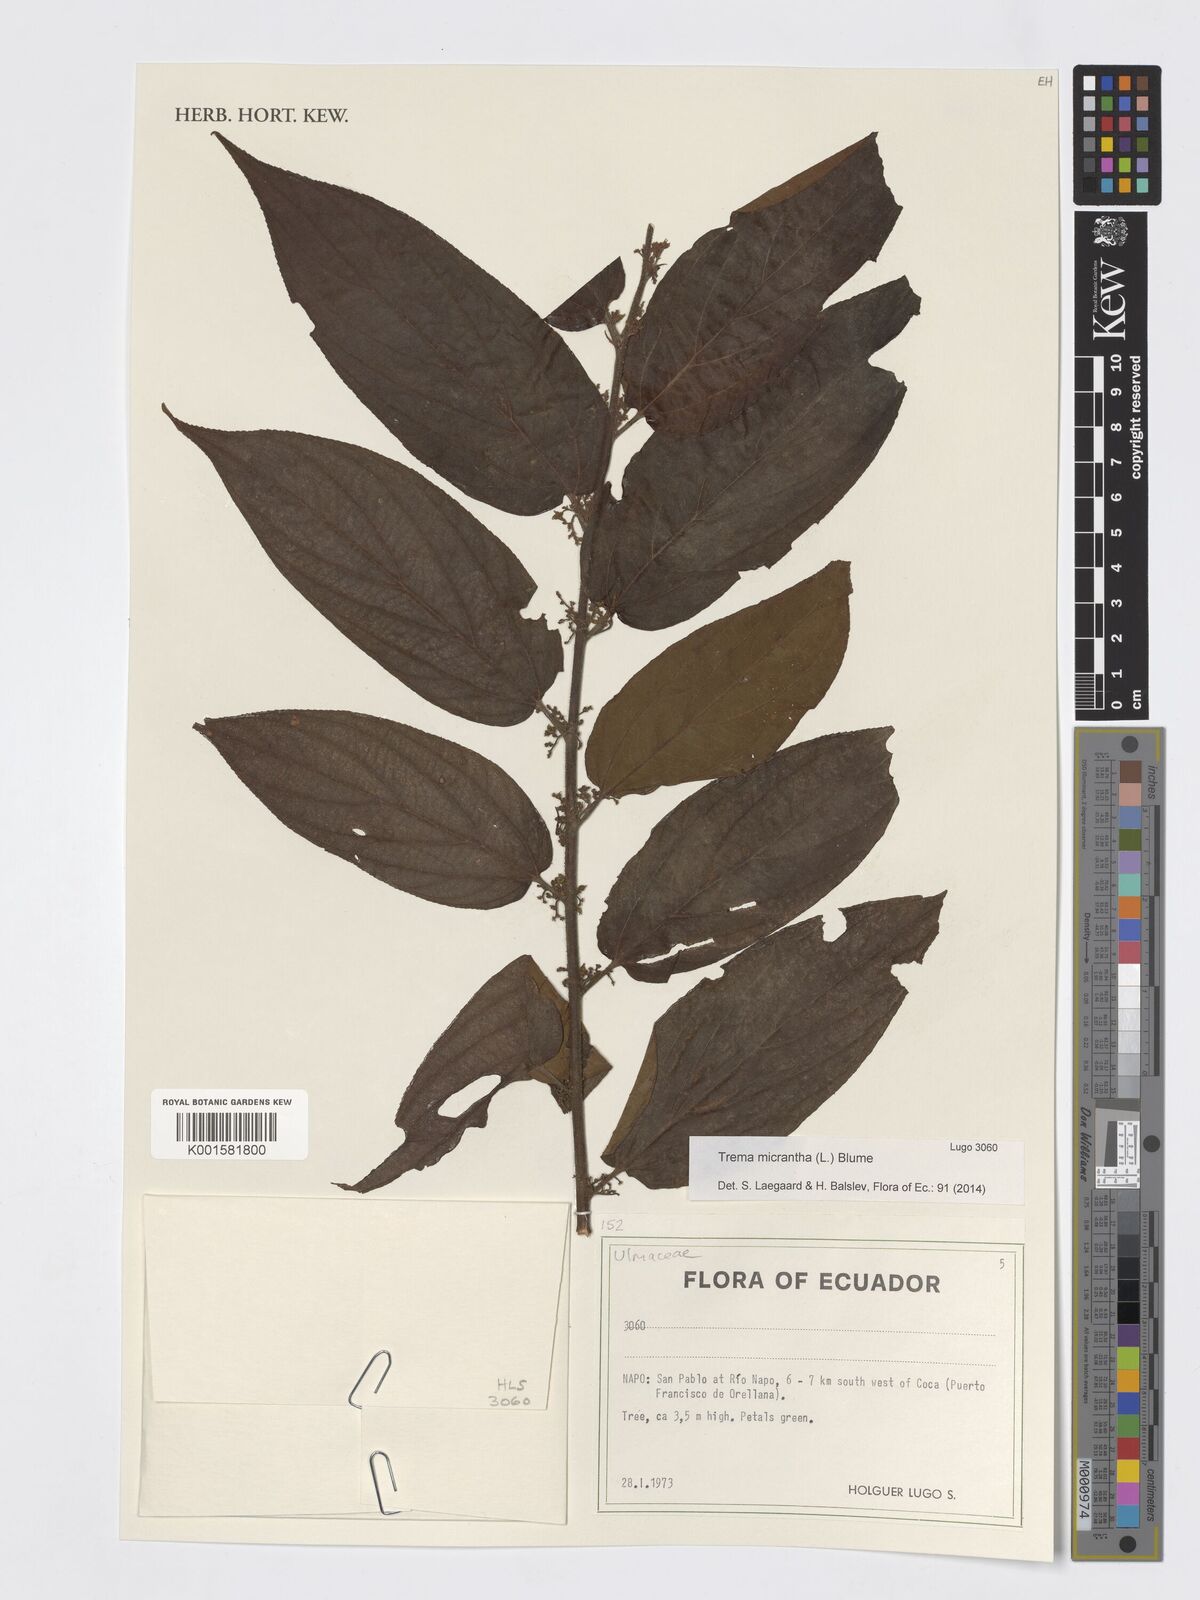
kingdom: Plantae
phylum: Tracheophyta
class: Magnoliopsida
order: Rosales
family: Cannabaceae
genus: Trema
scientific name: Trema micranthum
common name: Jamaican nettletree
